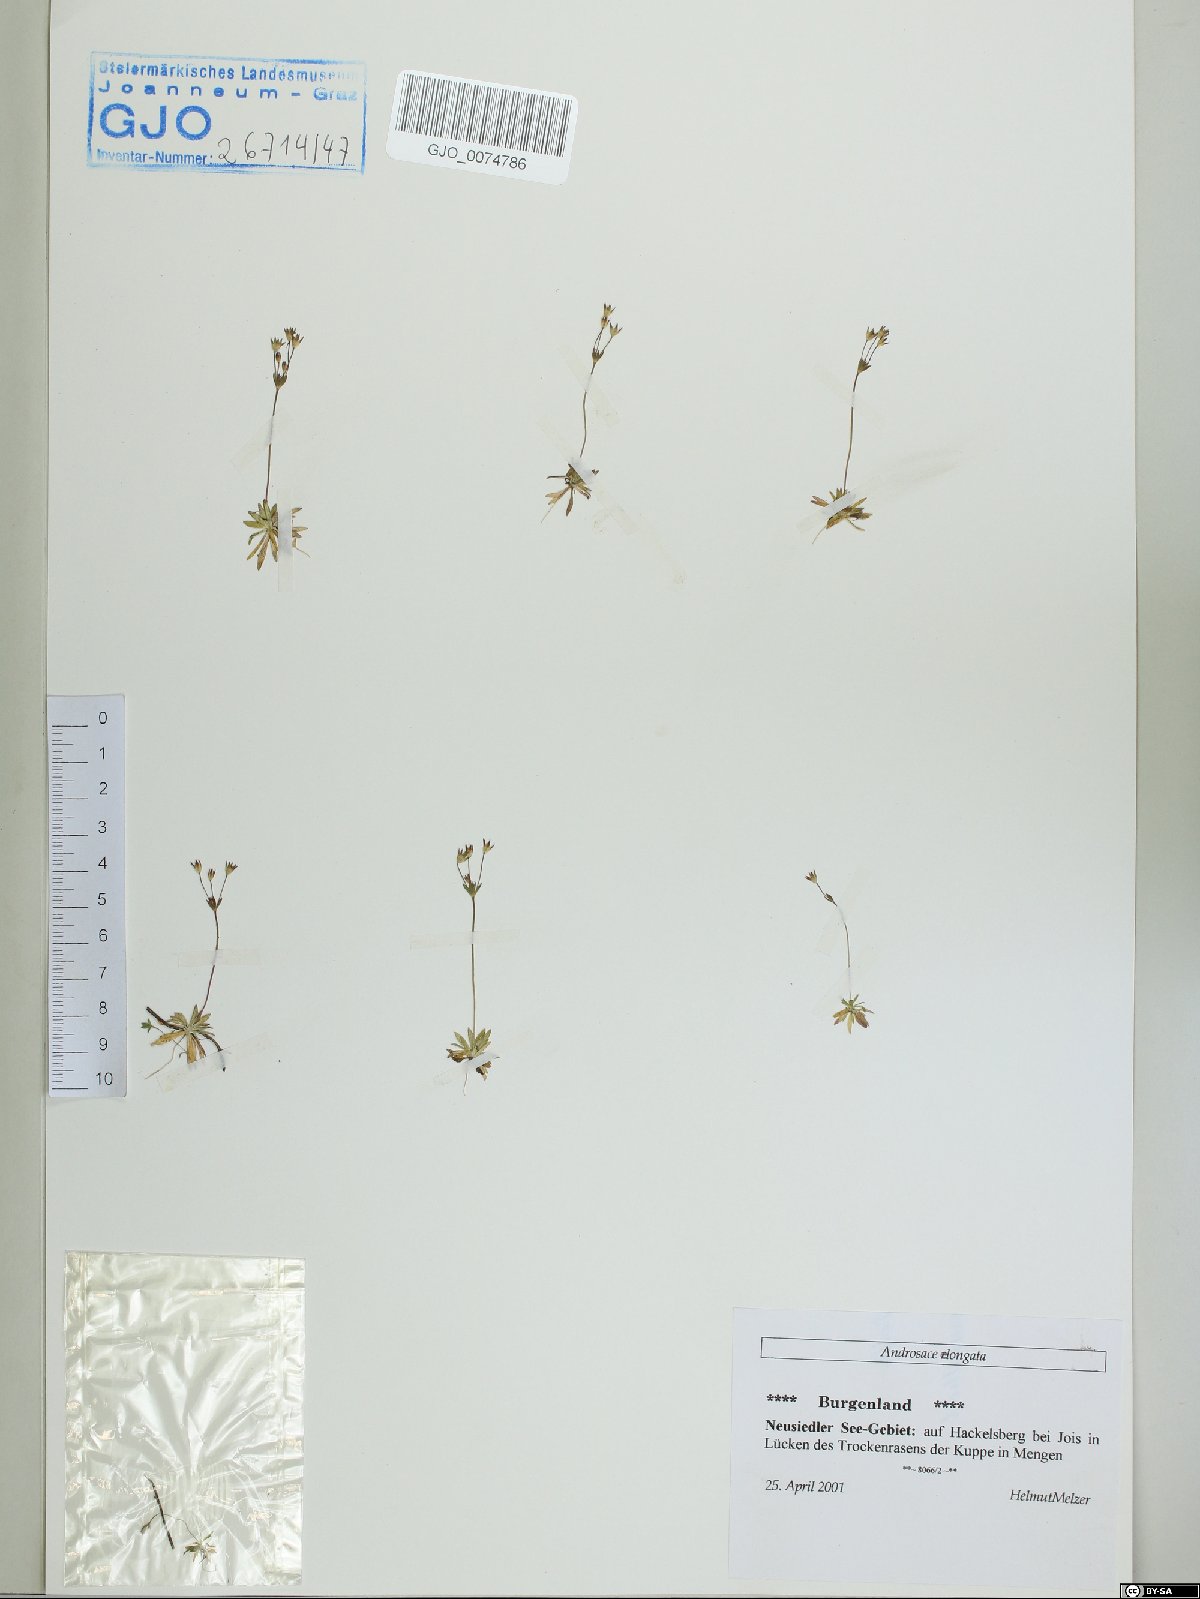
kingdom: Plantae
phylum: Tracheophyta
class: Magnoliopsida
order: Ericales
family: Primulaceae
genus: Androsace
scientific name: Androsace elongata
